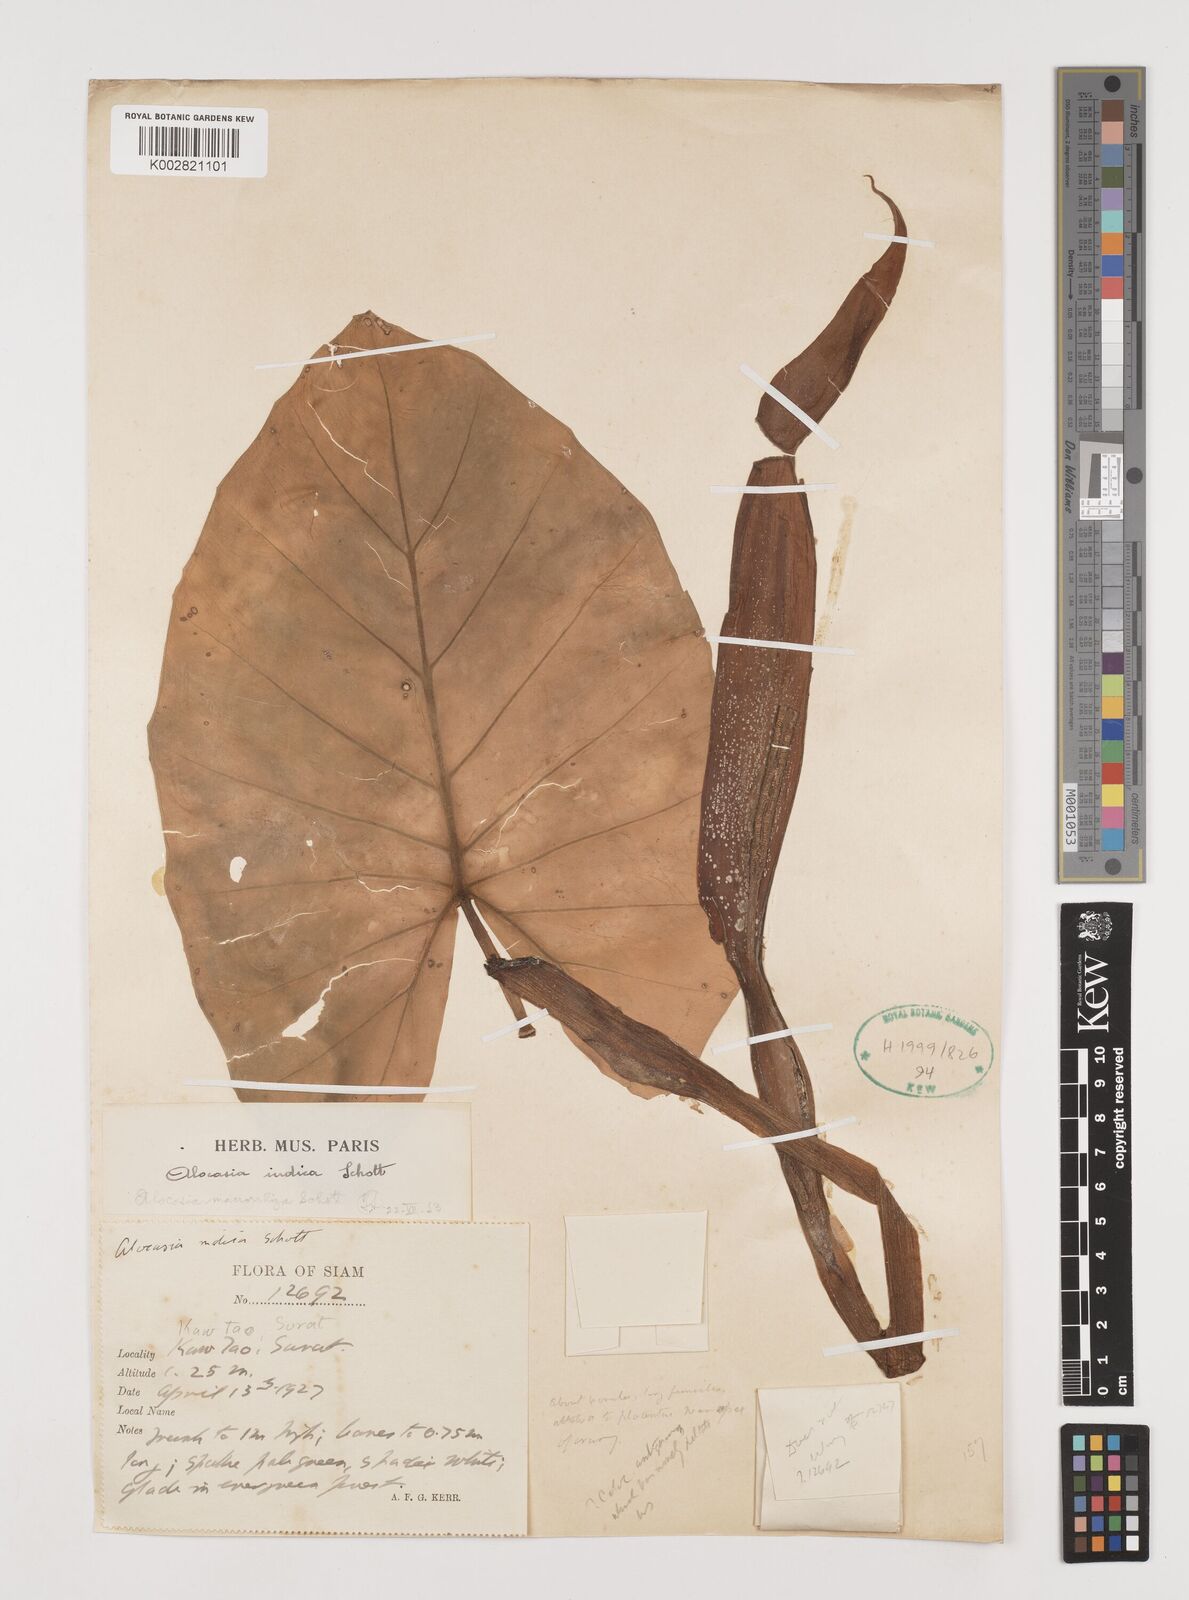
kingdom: Plantae
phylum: Tracheophyta
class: Liliopsida
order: Alismatales
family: Araceae
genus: Alocasia
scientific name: Alocasia
